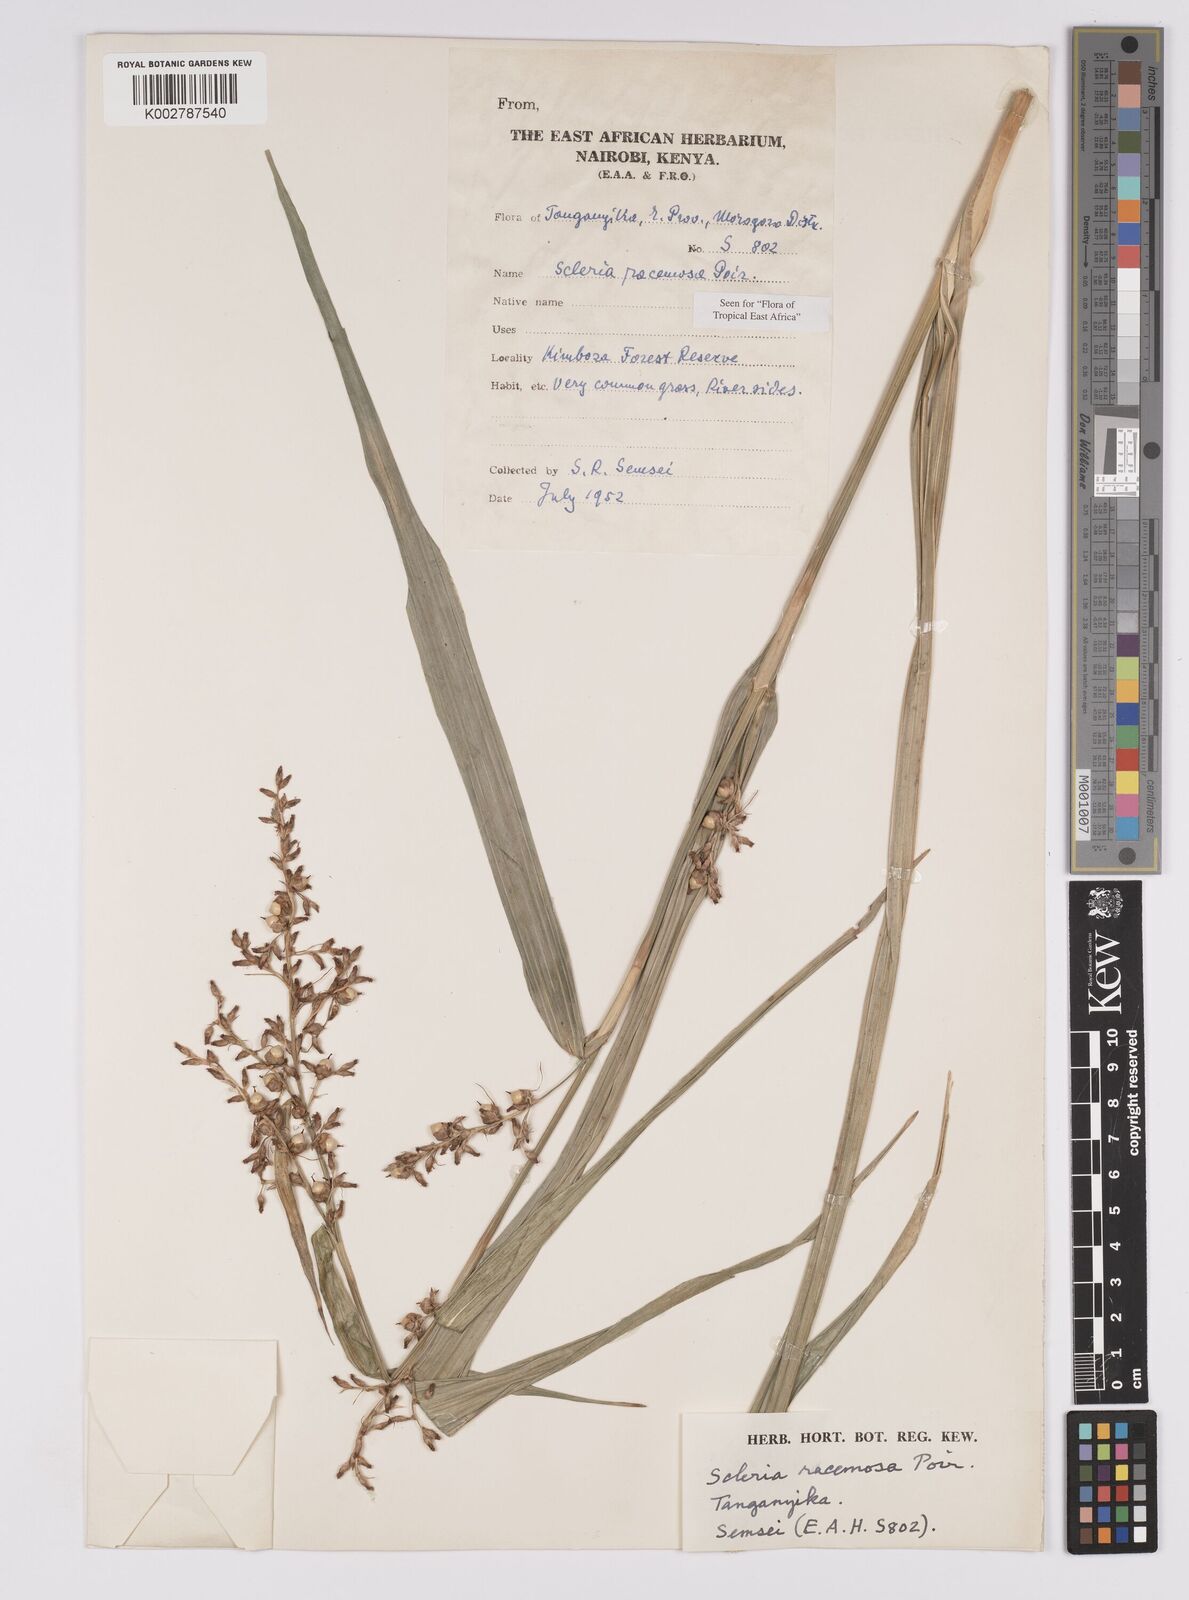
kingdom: Plantae
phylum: Tracheophyta
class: Liliopsida
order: Poales
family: Cyperaceae
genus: Scleria
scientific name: Scleria racemosa
